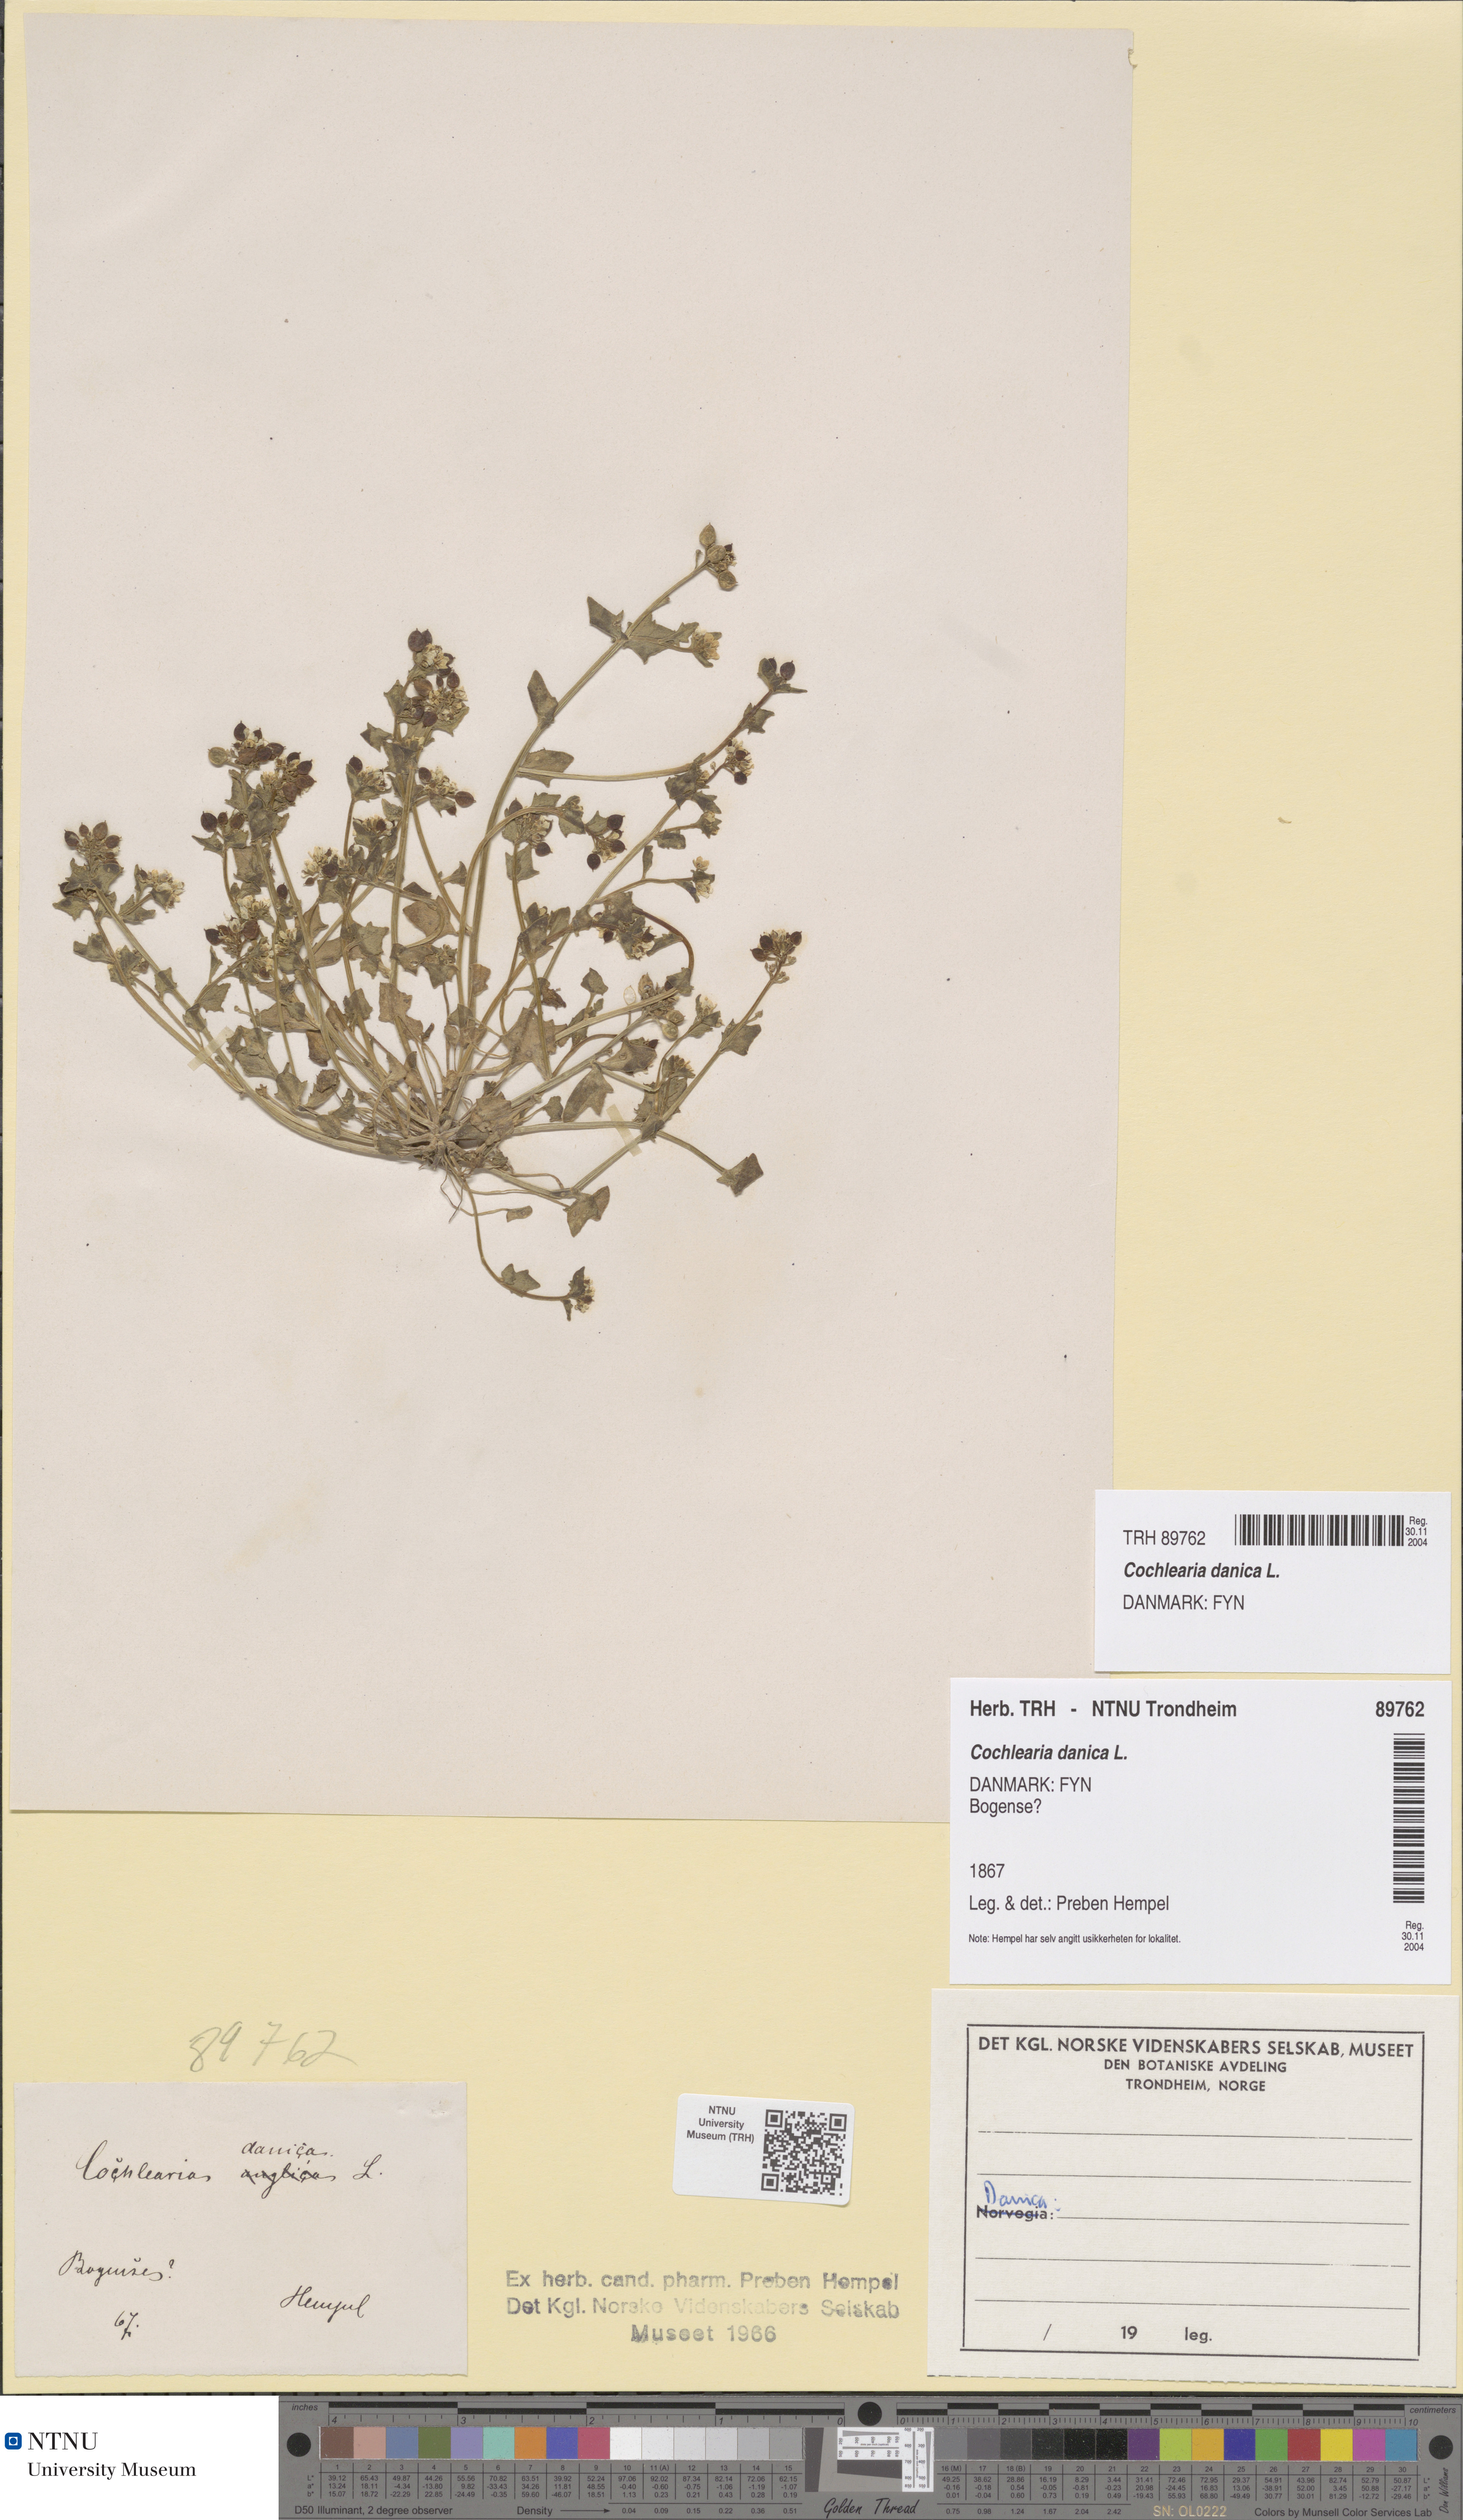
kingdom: Plantae
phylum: Tracheophyta
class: Magnoliopsida
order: Brassicales
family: Brassicaceae
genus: Cochlearia
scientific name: Cochlearia danica
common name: Early scurvygrass
